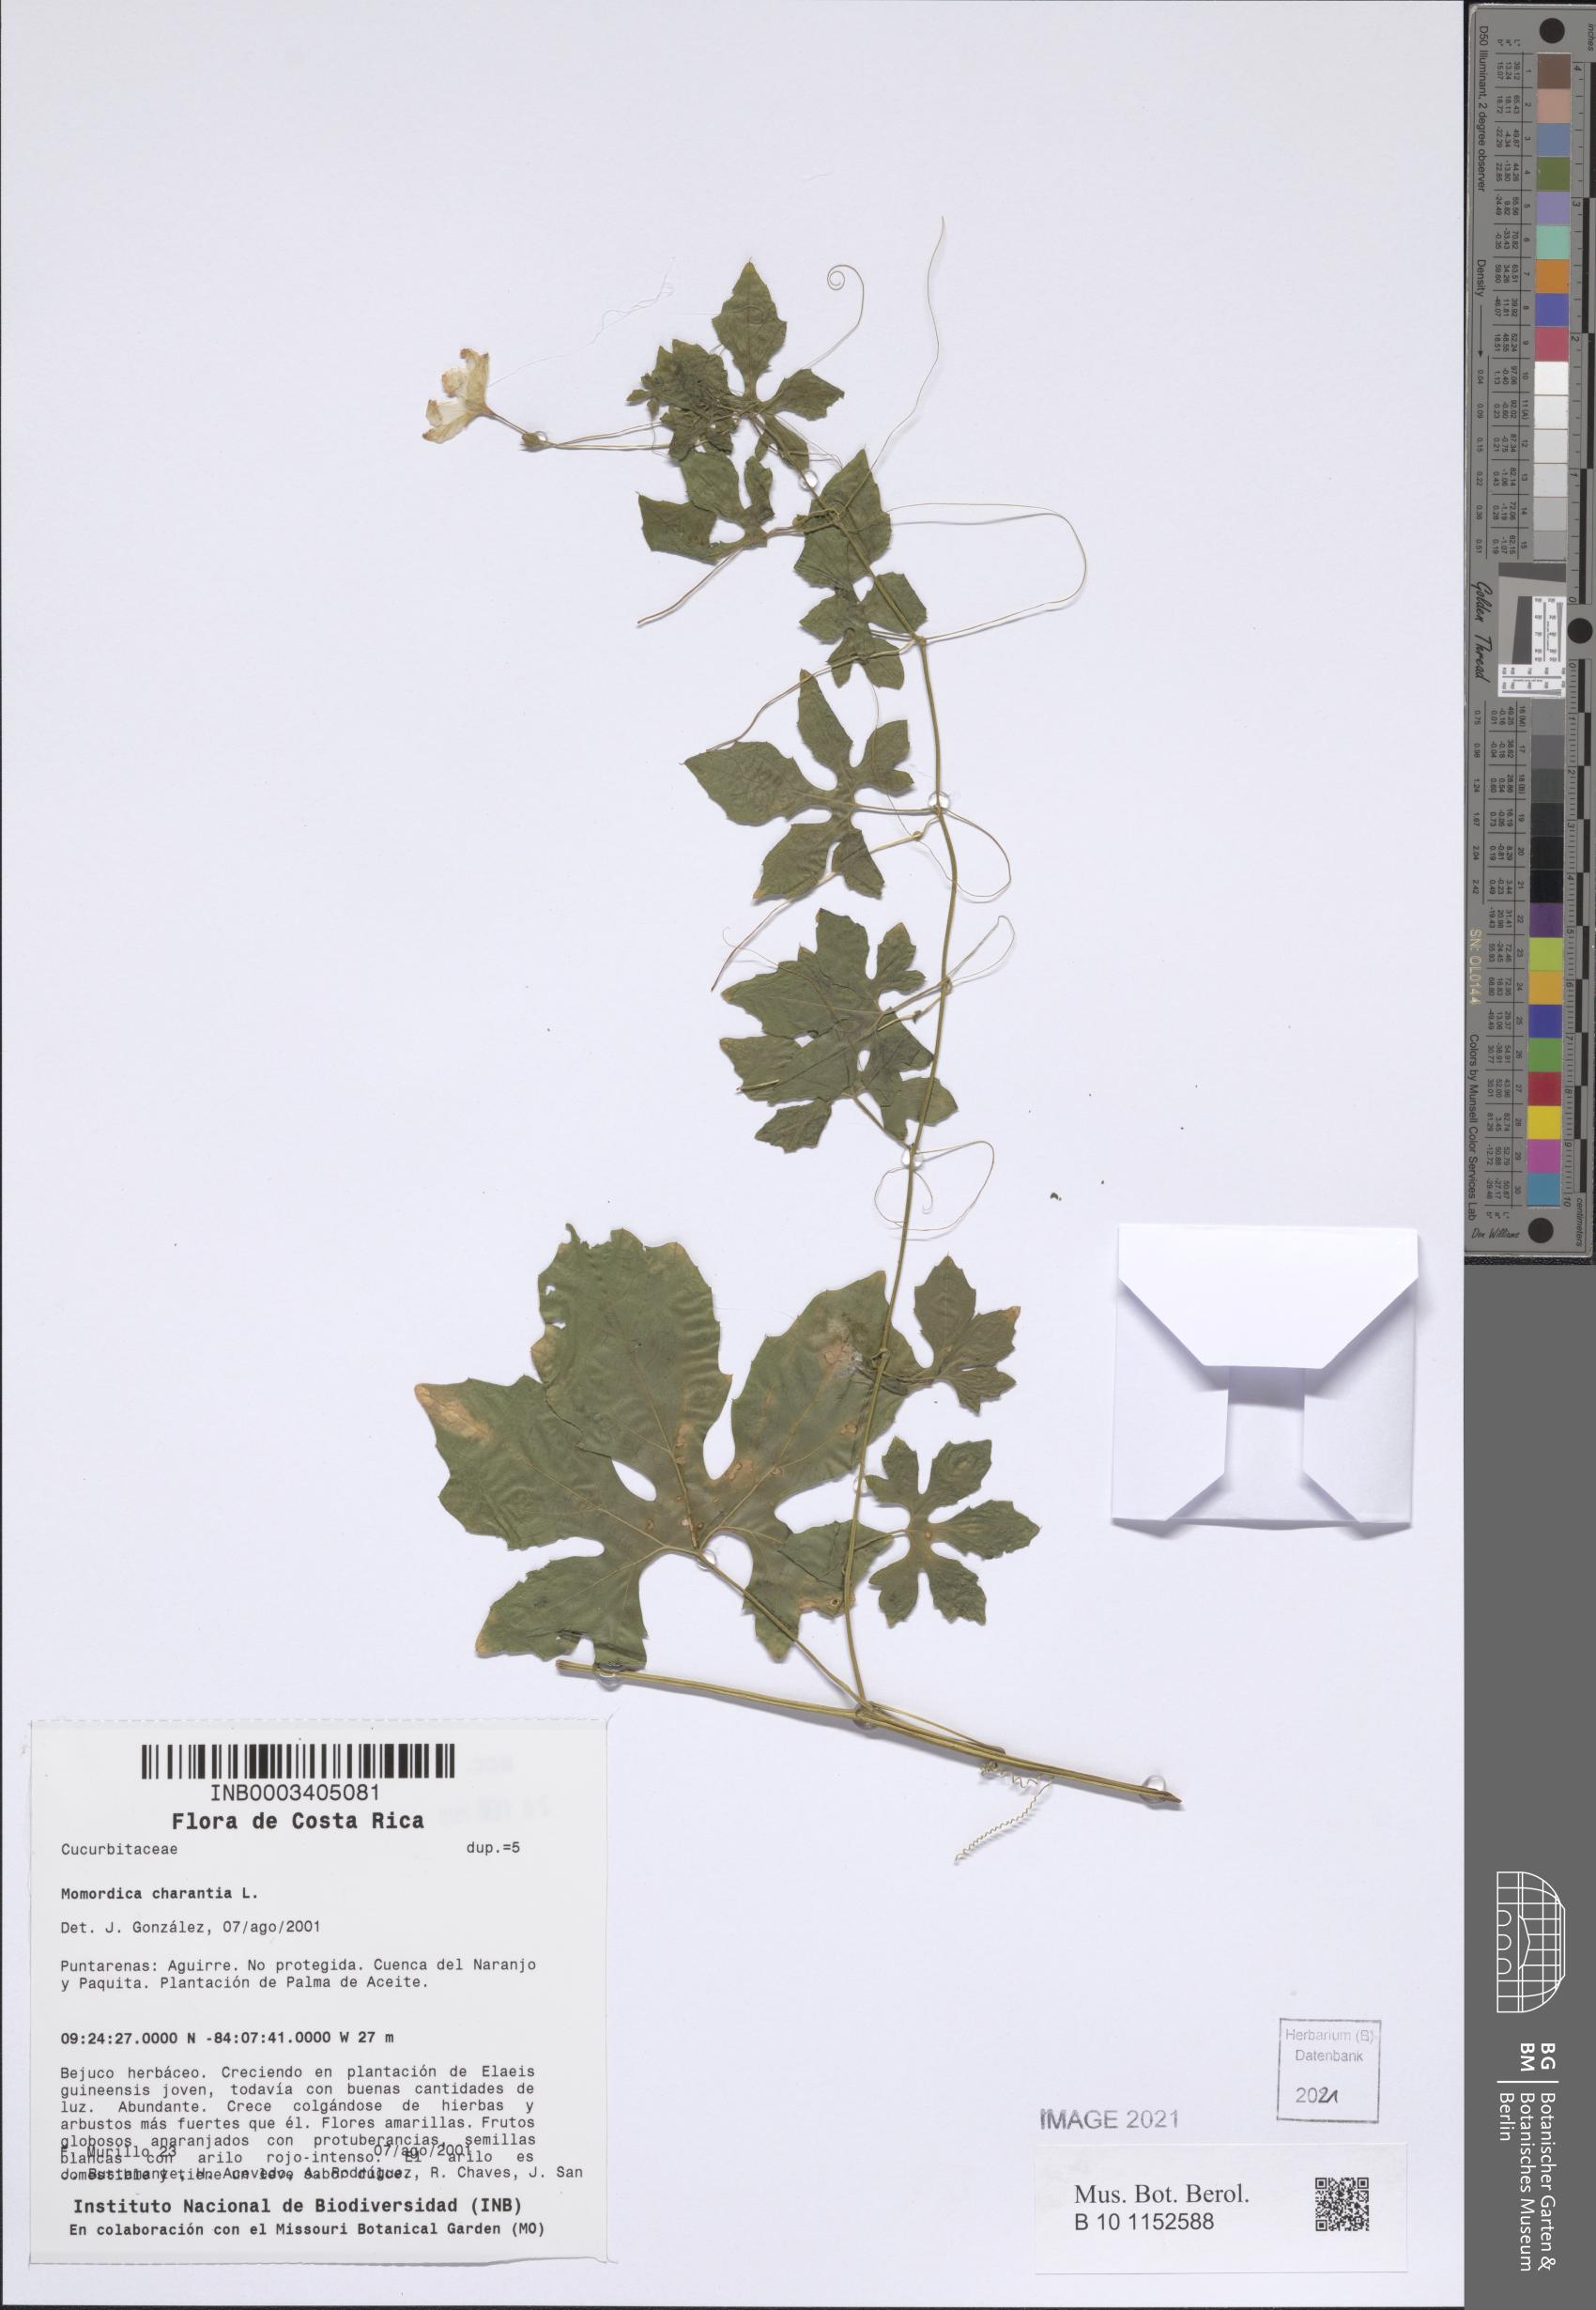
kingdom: Plantae
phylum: Tracheophyta
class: Magnoliopsida
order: Cucurbitales
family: Cucurbitaceae
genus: Momordica
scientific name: Momordica charantia
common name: Balsampear
